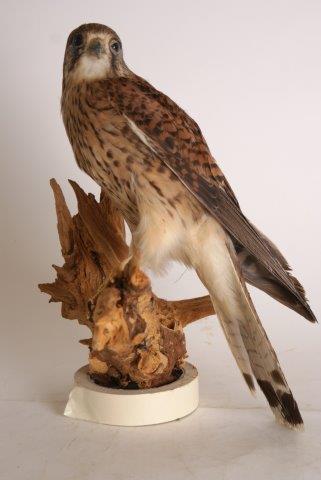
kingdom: Animalia
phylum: Chordata
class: Aves
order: Falconiformes
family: Falconidae
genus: Falco
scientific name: Falco tinnunculus
